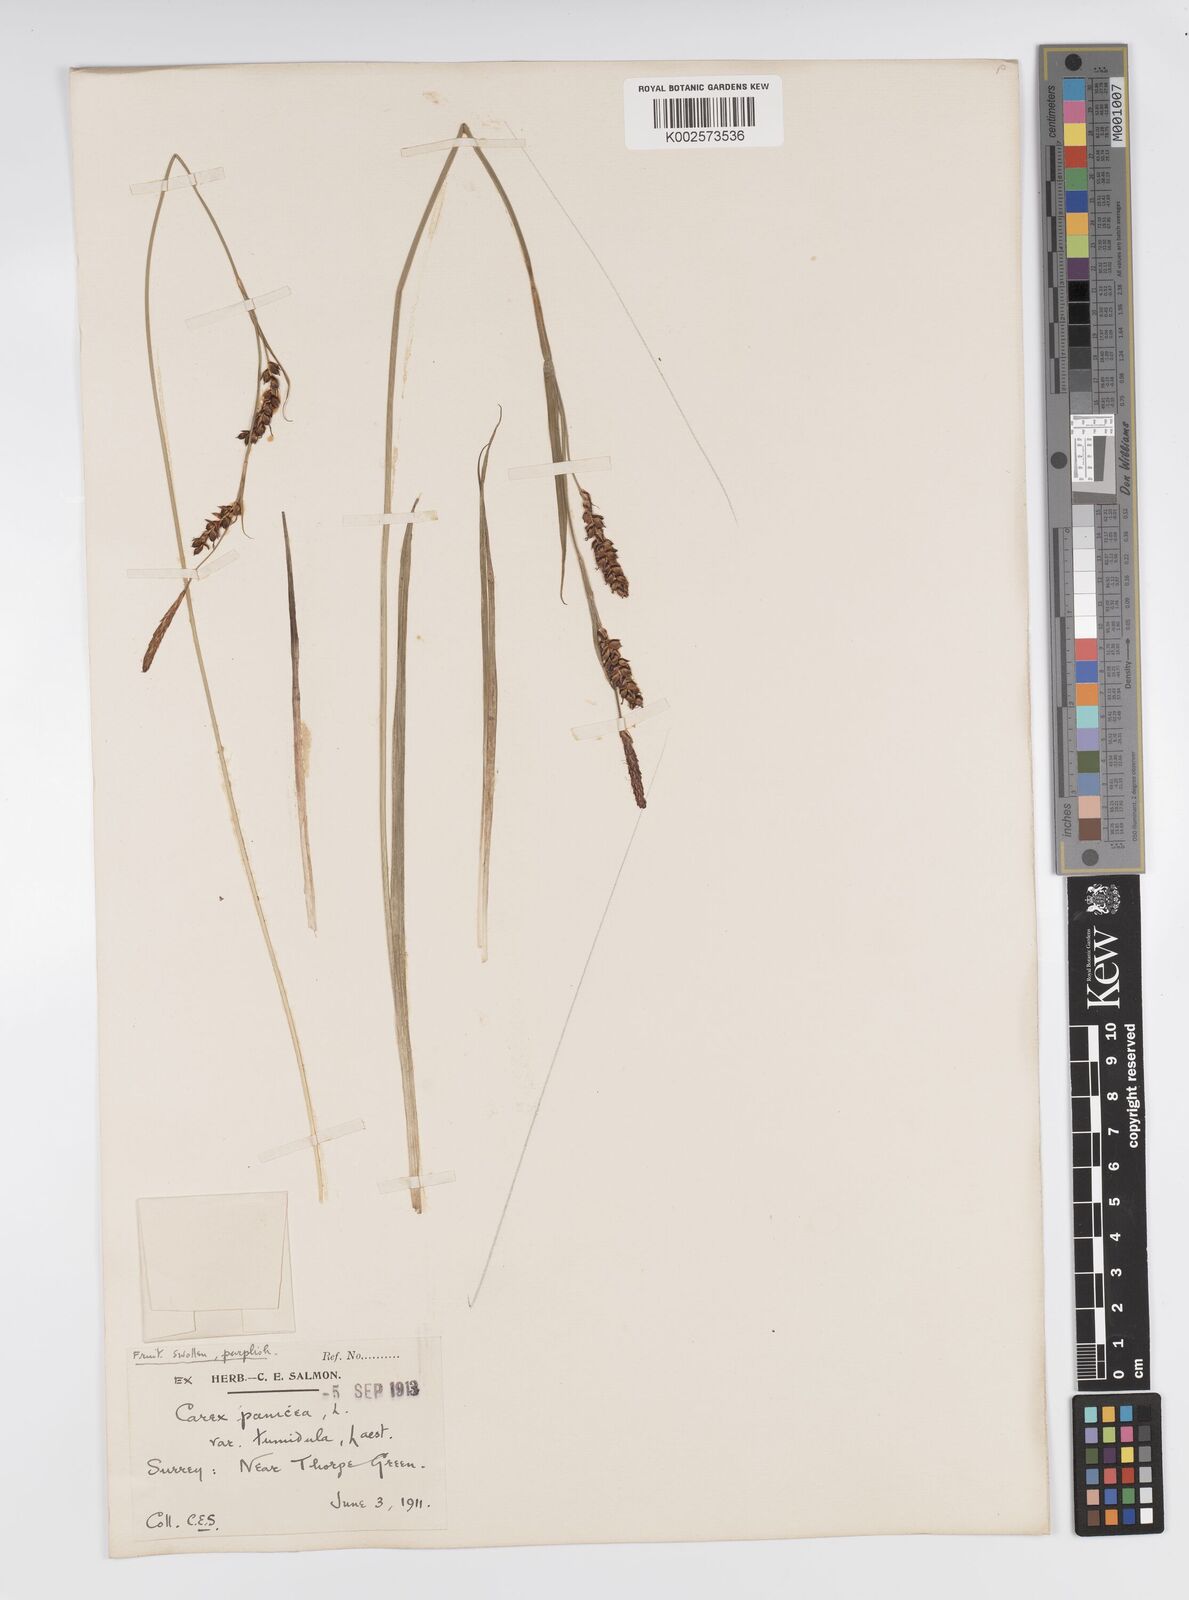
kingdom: Plantae
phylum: Tracheophyta
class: Liliopsida
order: Poales
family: Cyperaceae
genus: Carex
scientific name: Carex panicea
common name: Carnation sedge
